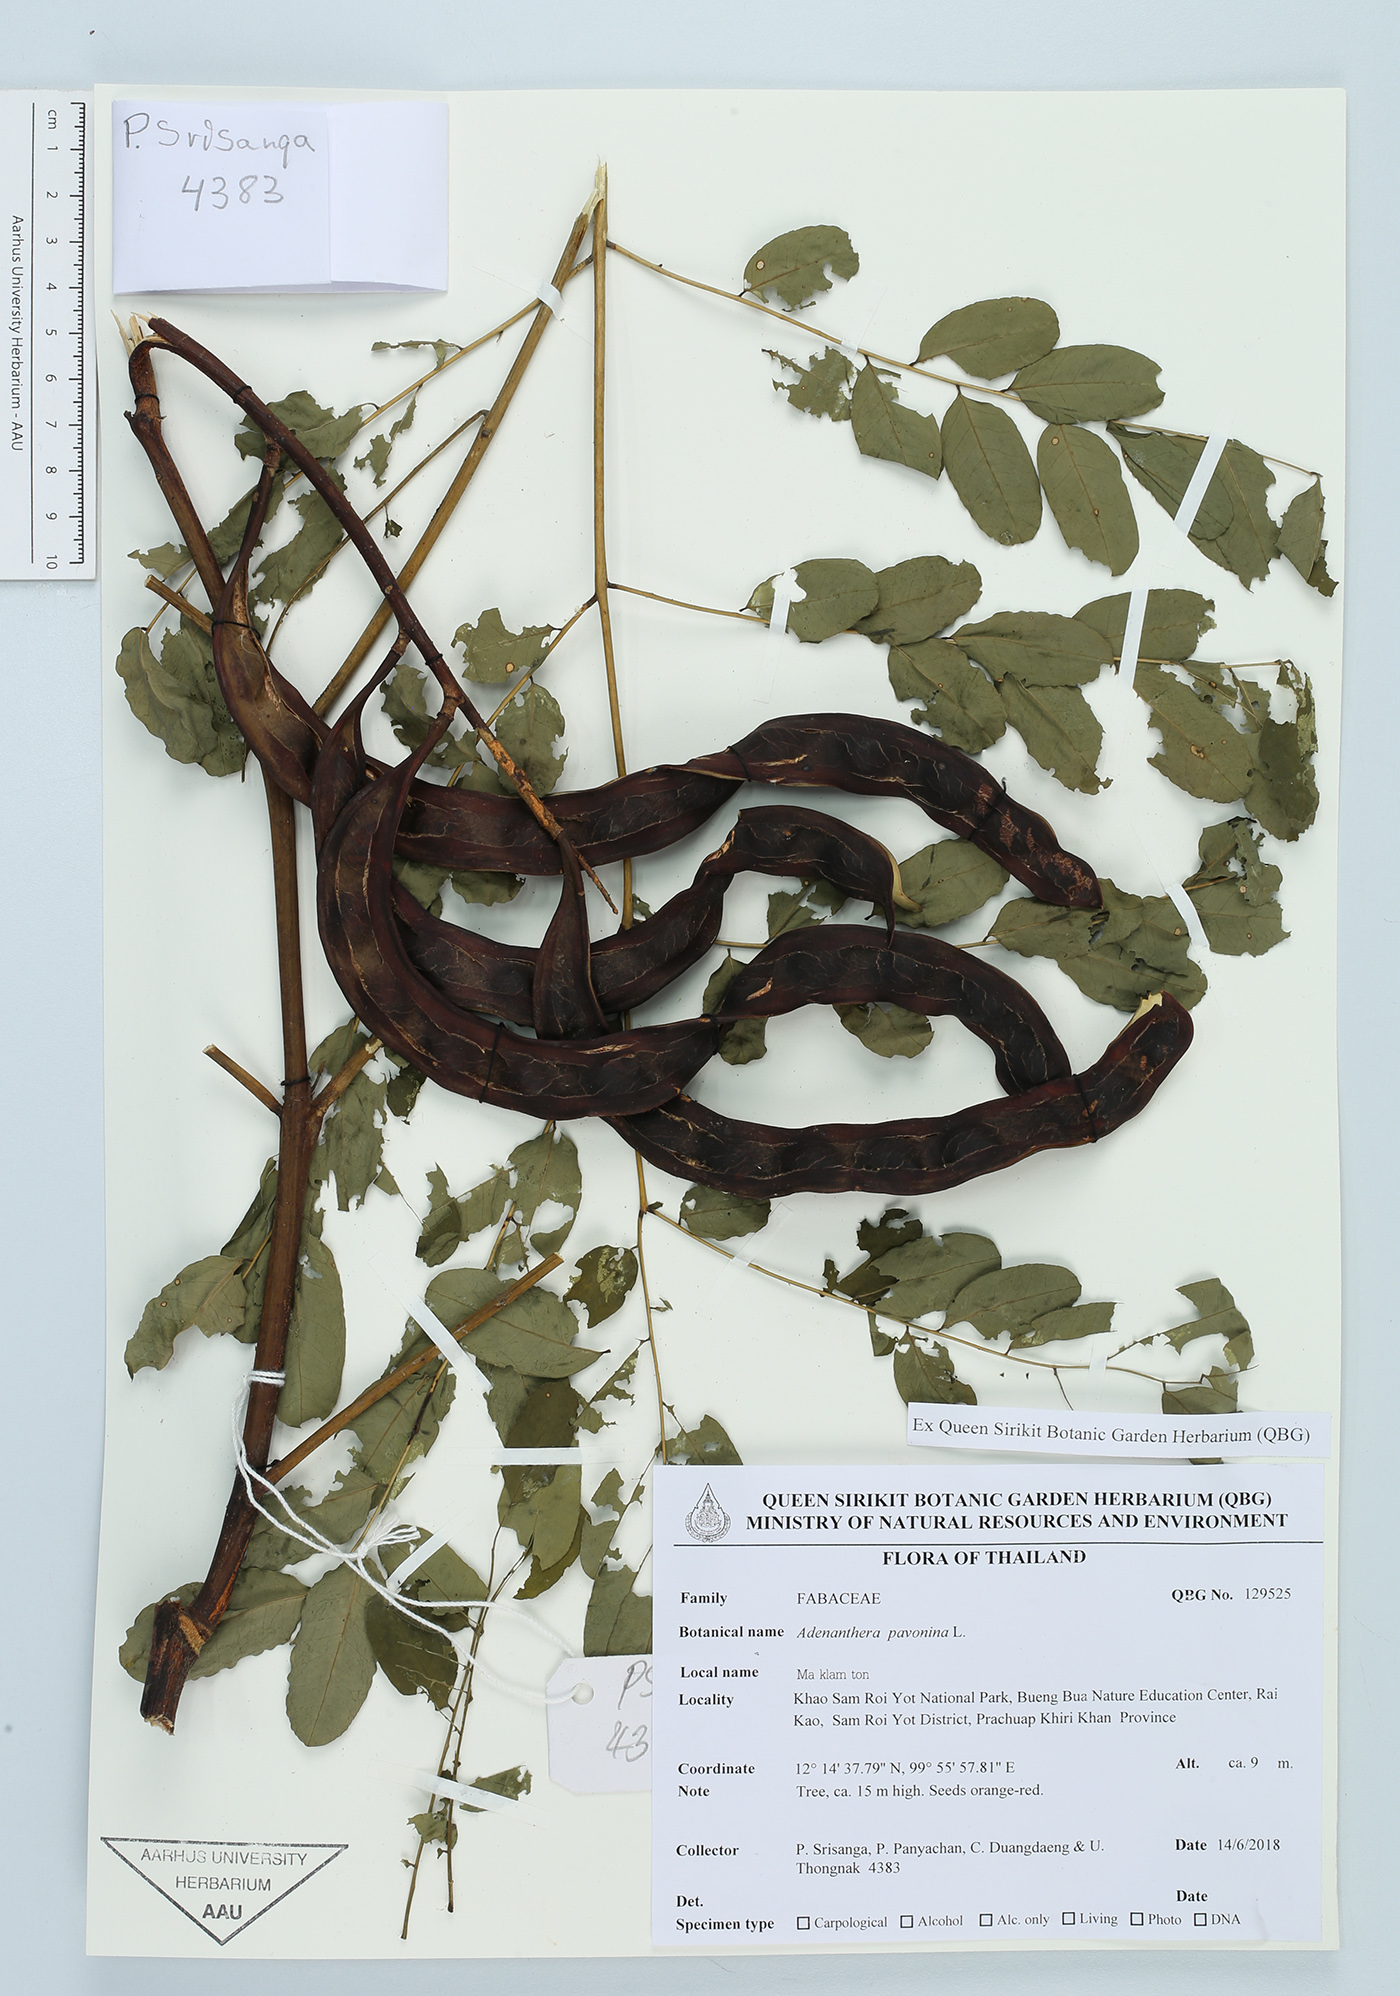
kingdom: Plantae
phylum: Tracheophyta
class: Magnoliopsida
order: Fabales
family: Fabaceae
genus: Adenanthera
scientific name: Adenanthera pavonina
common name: Red beadtree
